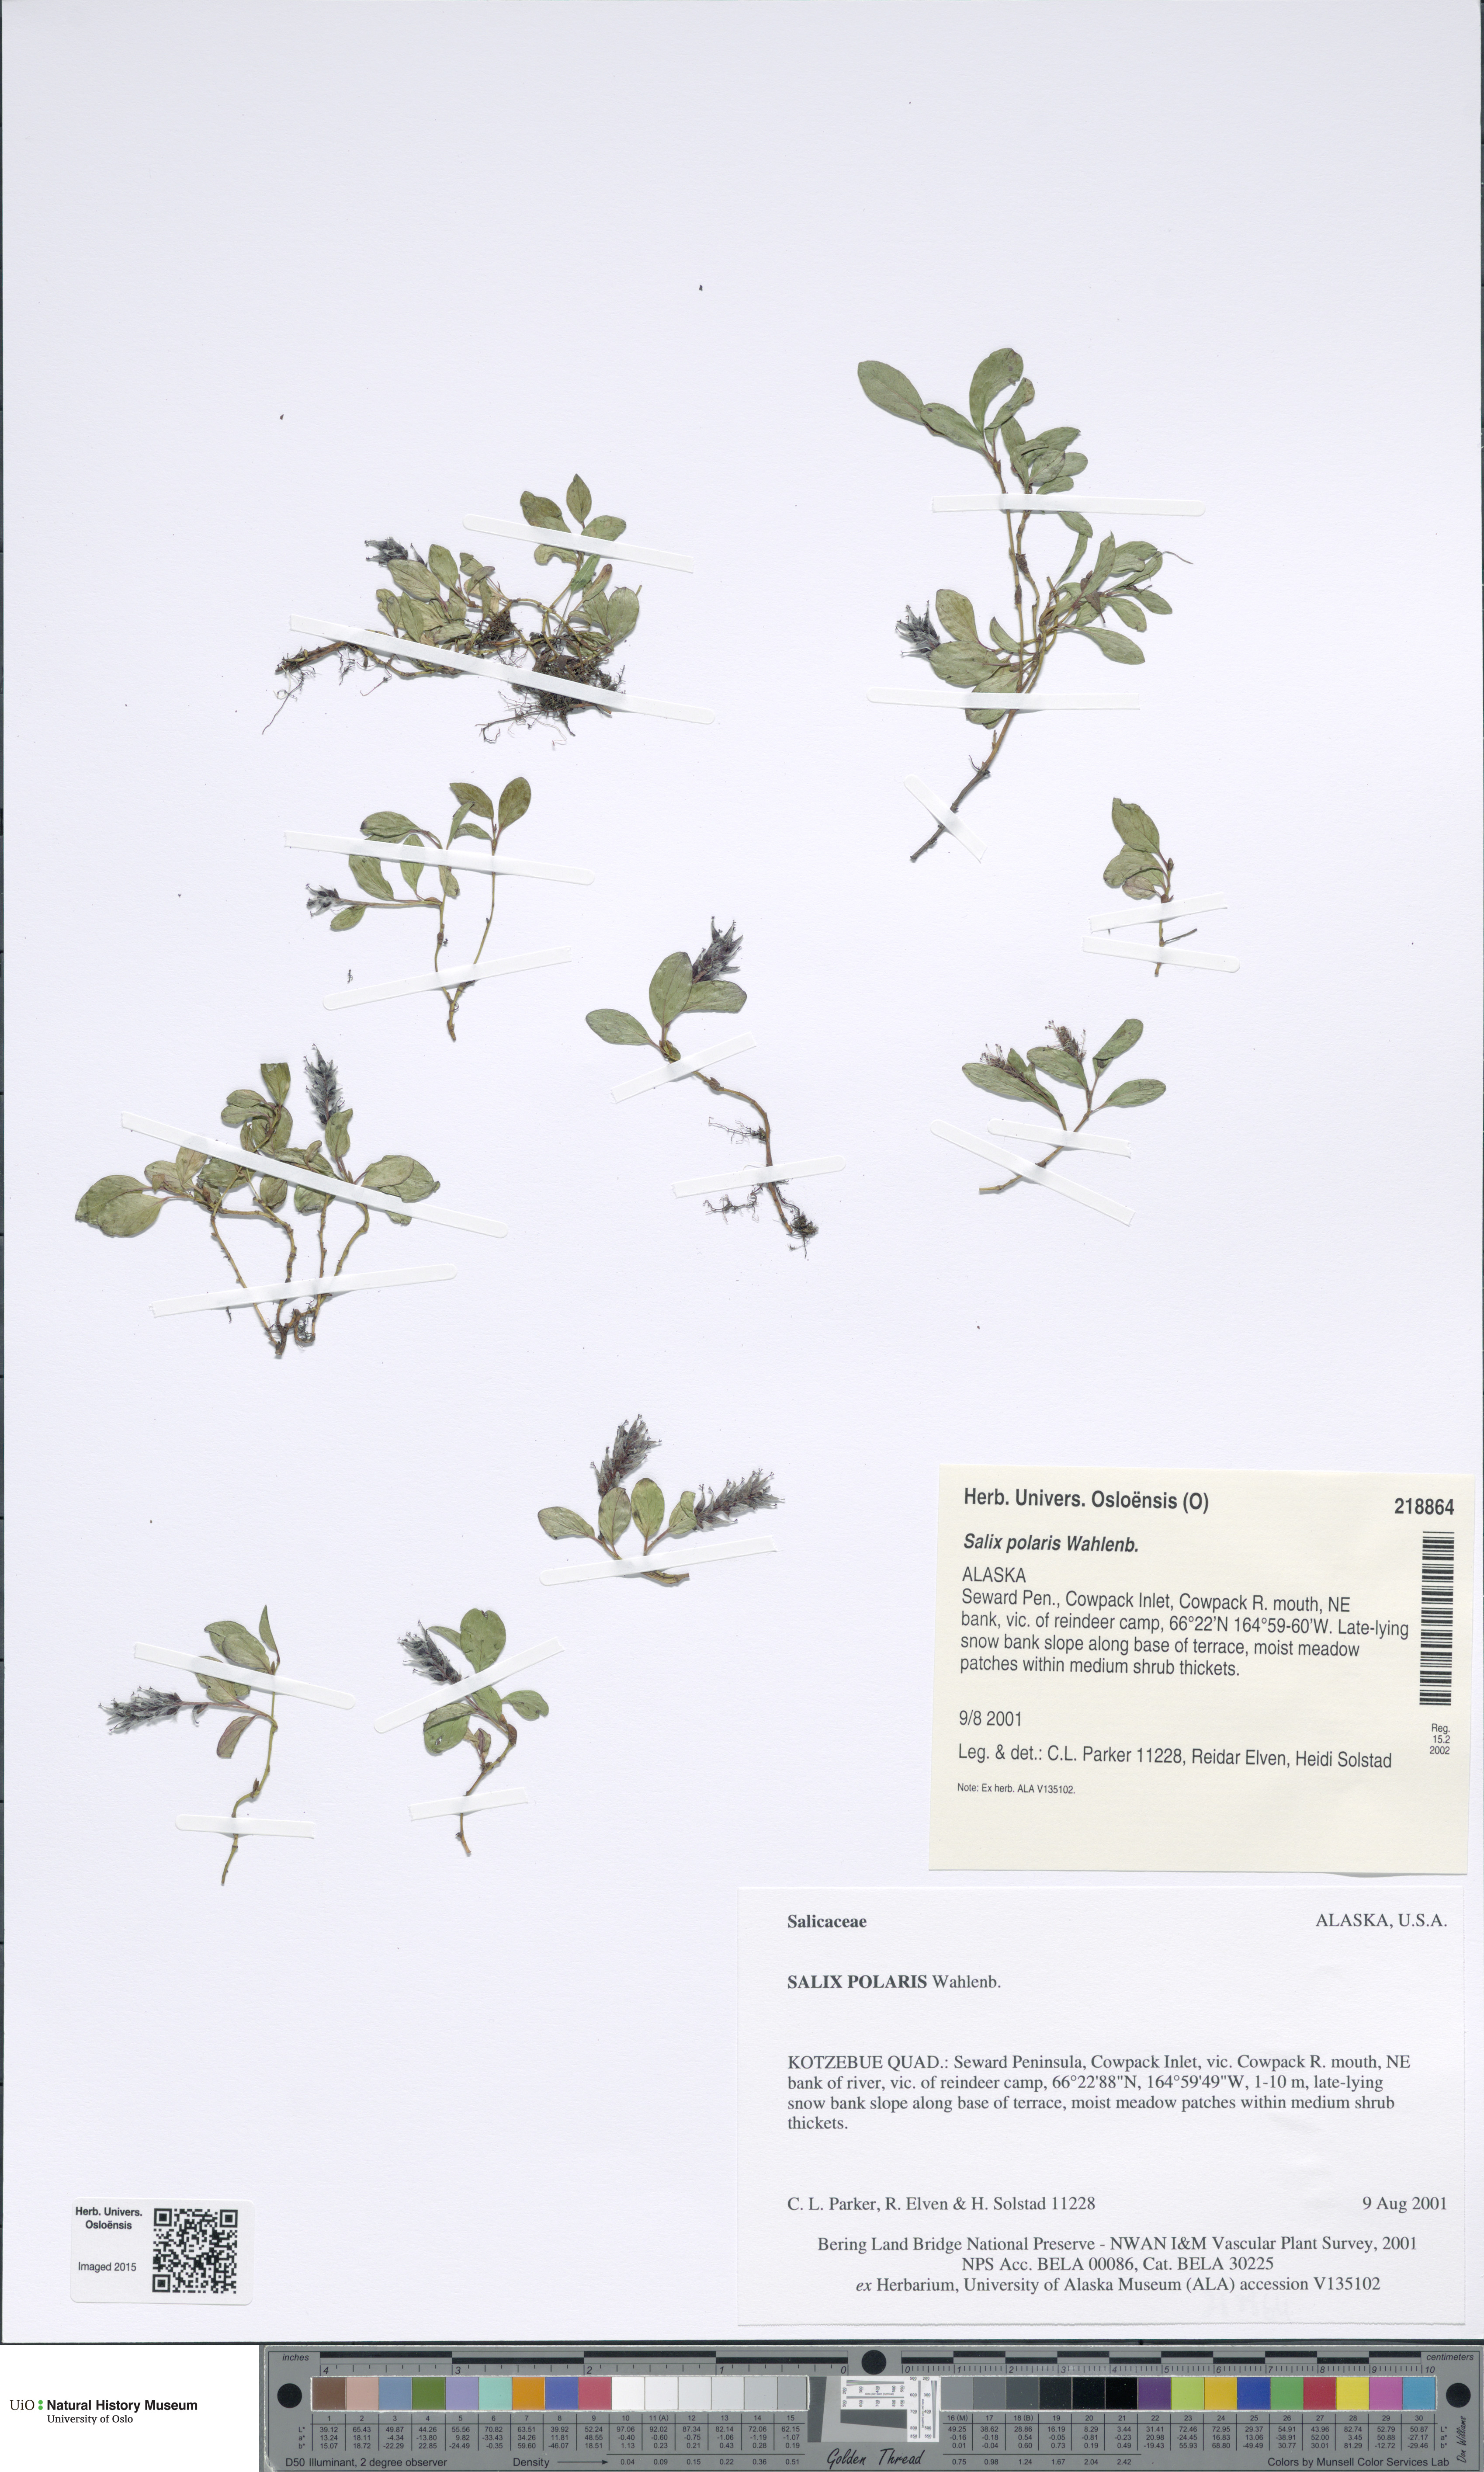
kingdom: Plantae
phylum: Tracheophyta
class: Magnoliopsida
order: Malpighiales
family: Salicaceae
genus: Salix
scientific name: Salix polaris
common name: Polar willow
